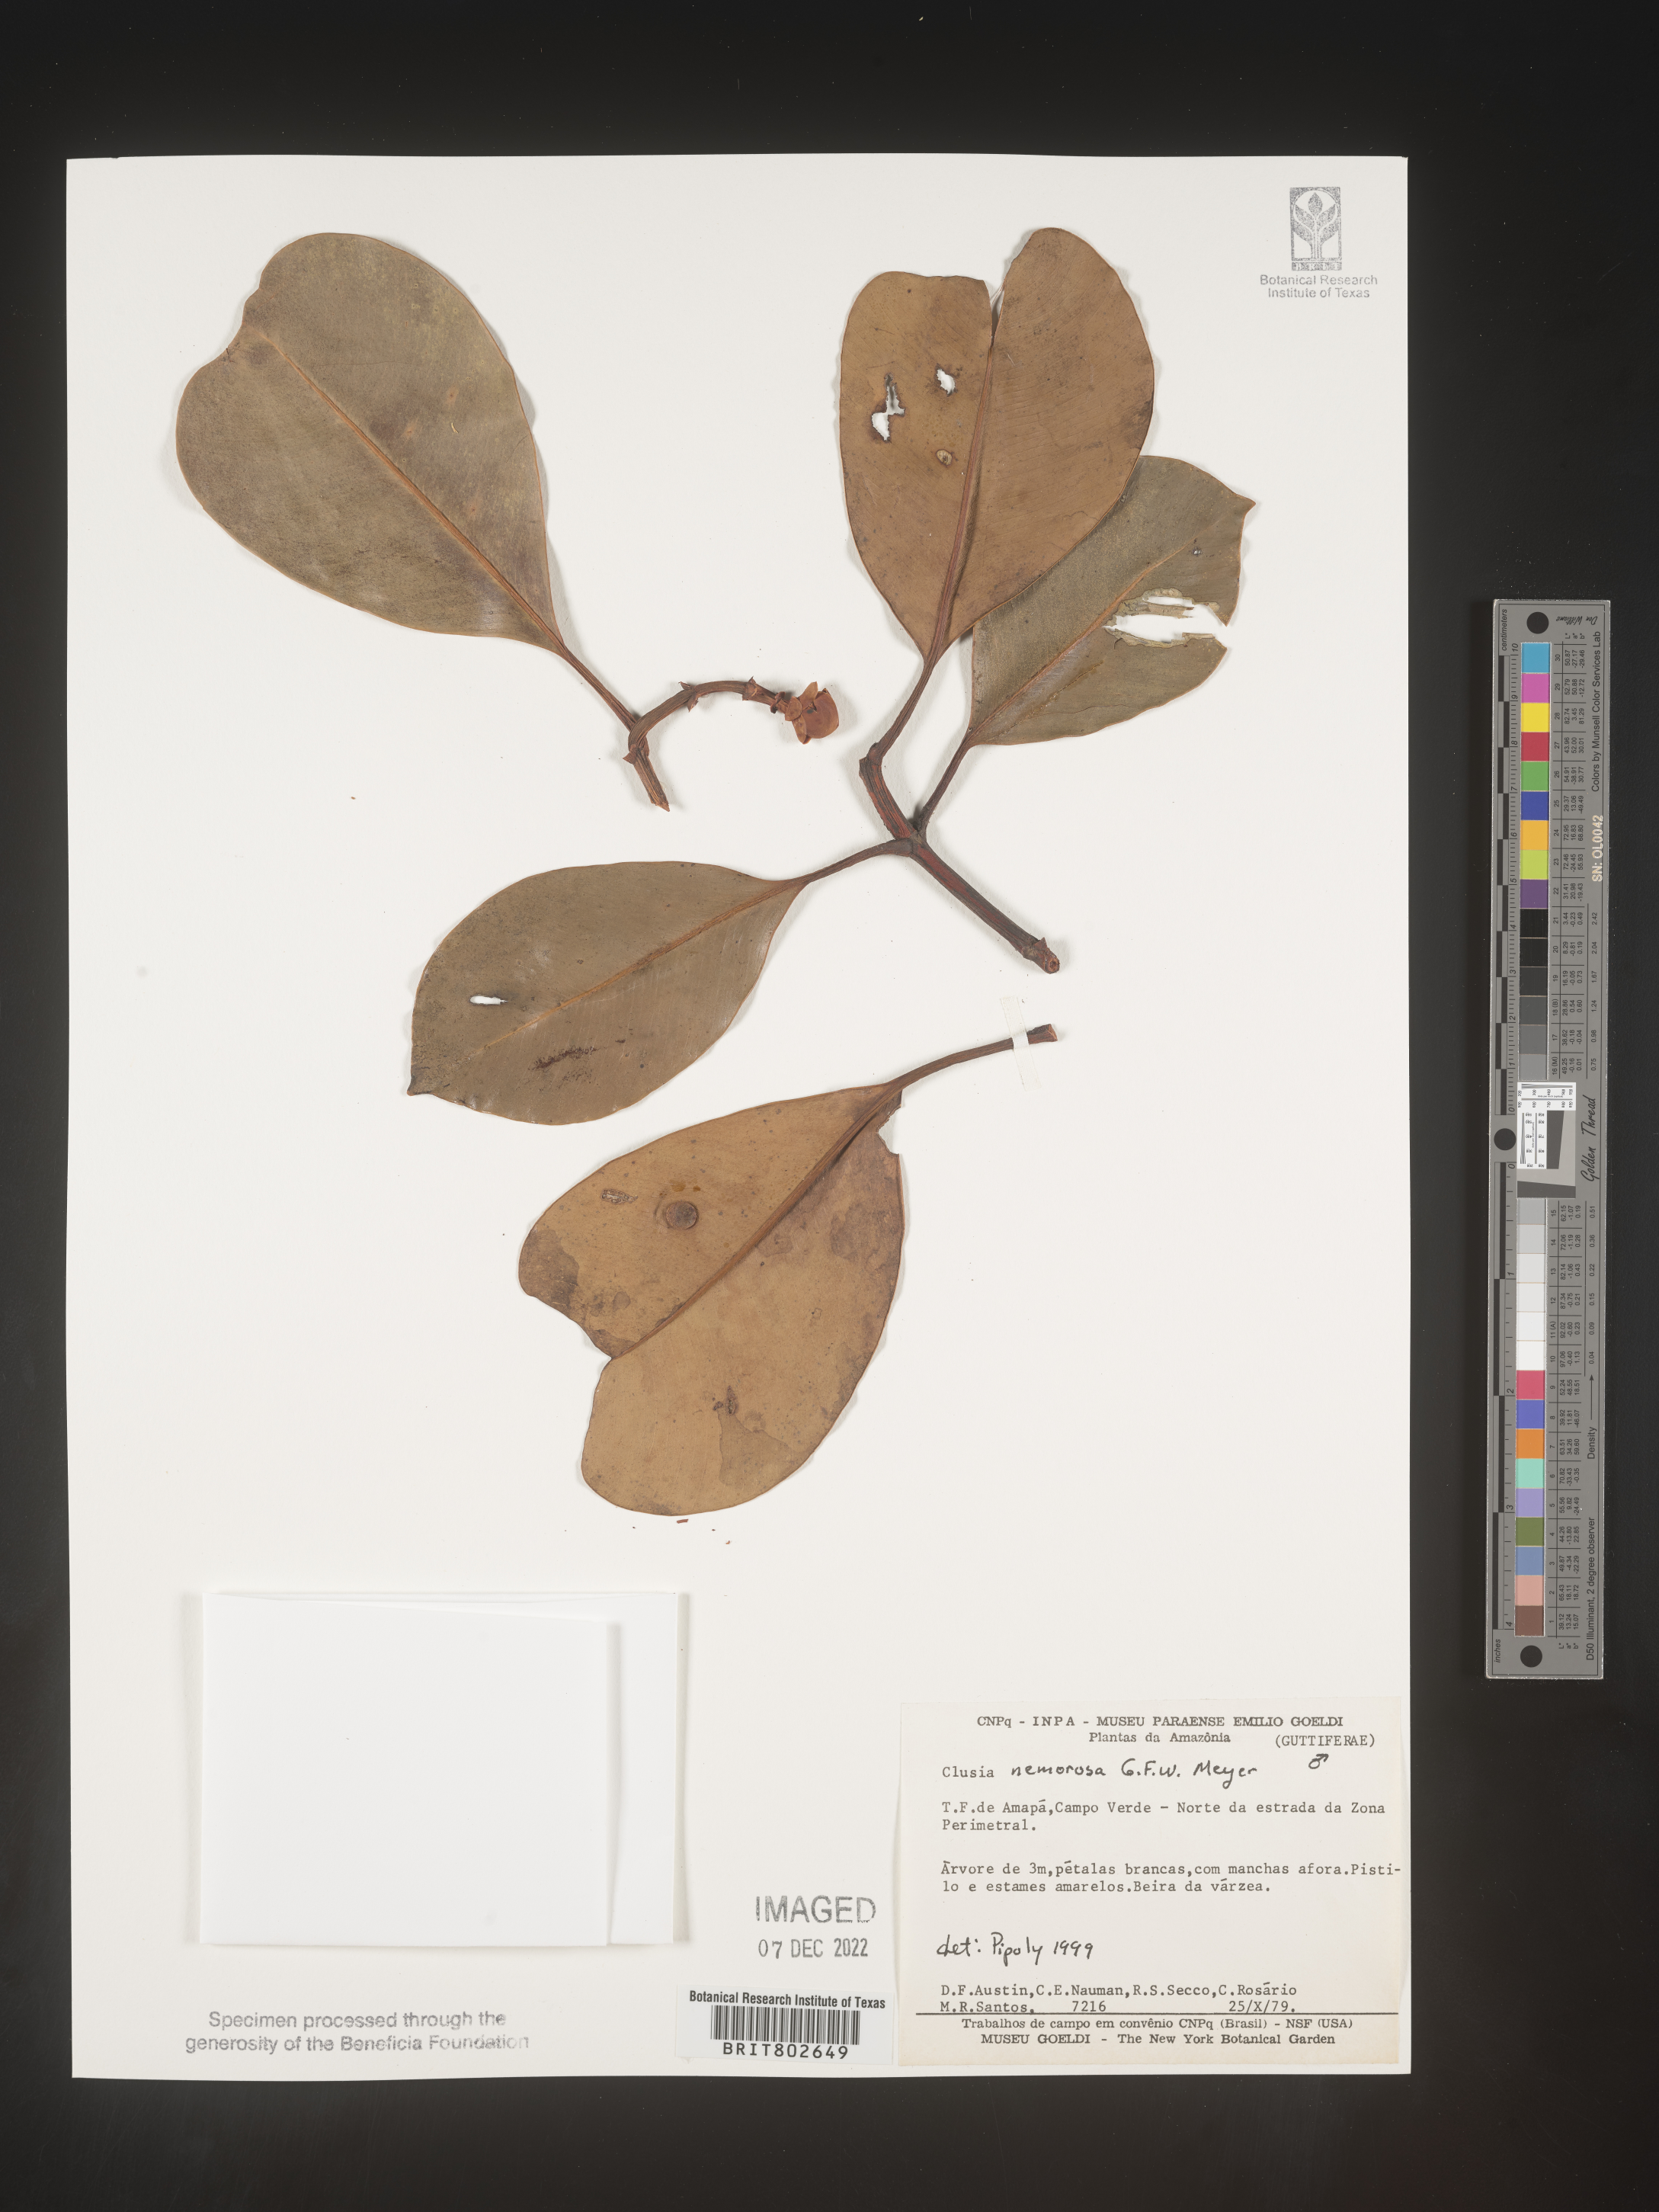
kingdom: Plantae
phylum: Tracheophyta
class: Magnoliopsida
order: Malpighiales
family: Clusiaceae
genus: Clusia
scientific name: Clusia nemorosa
